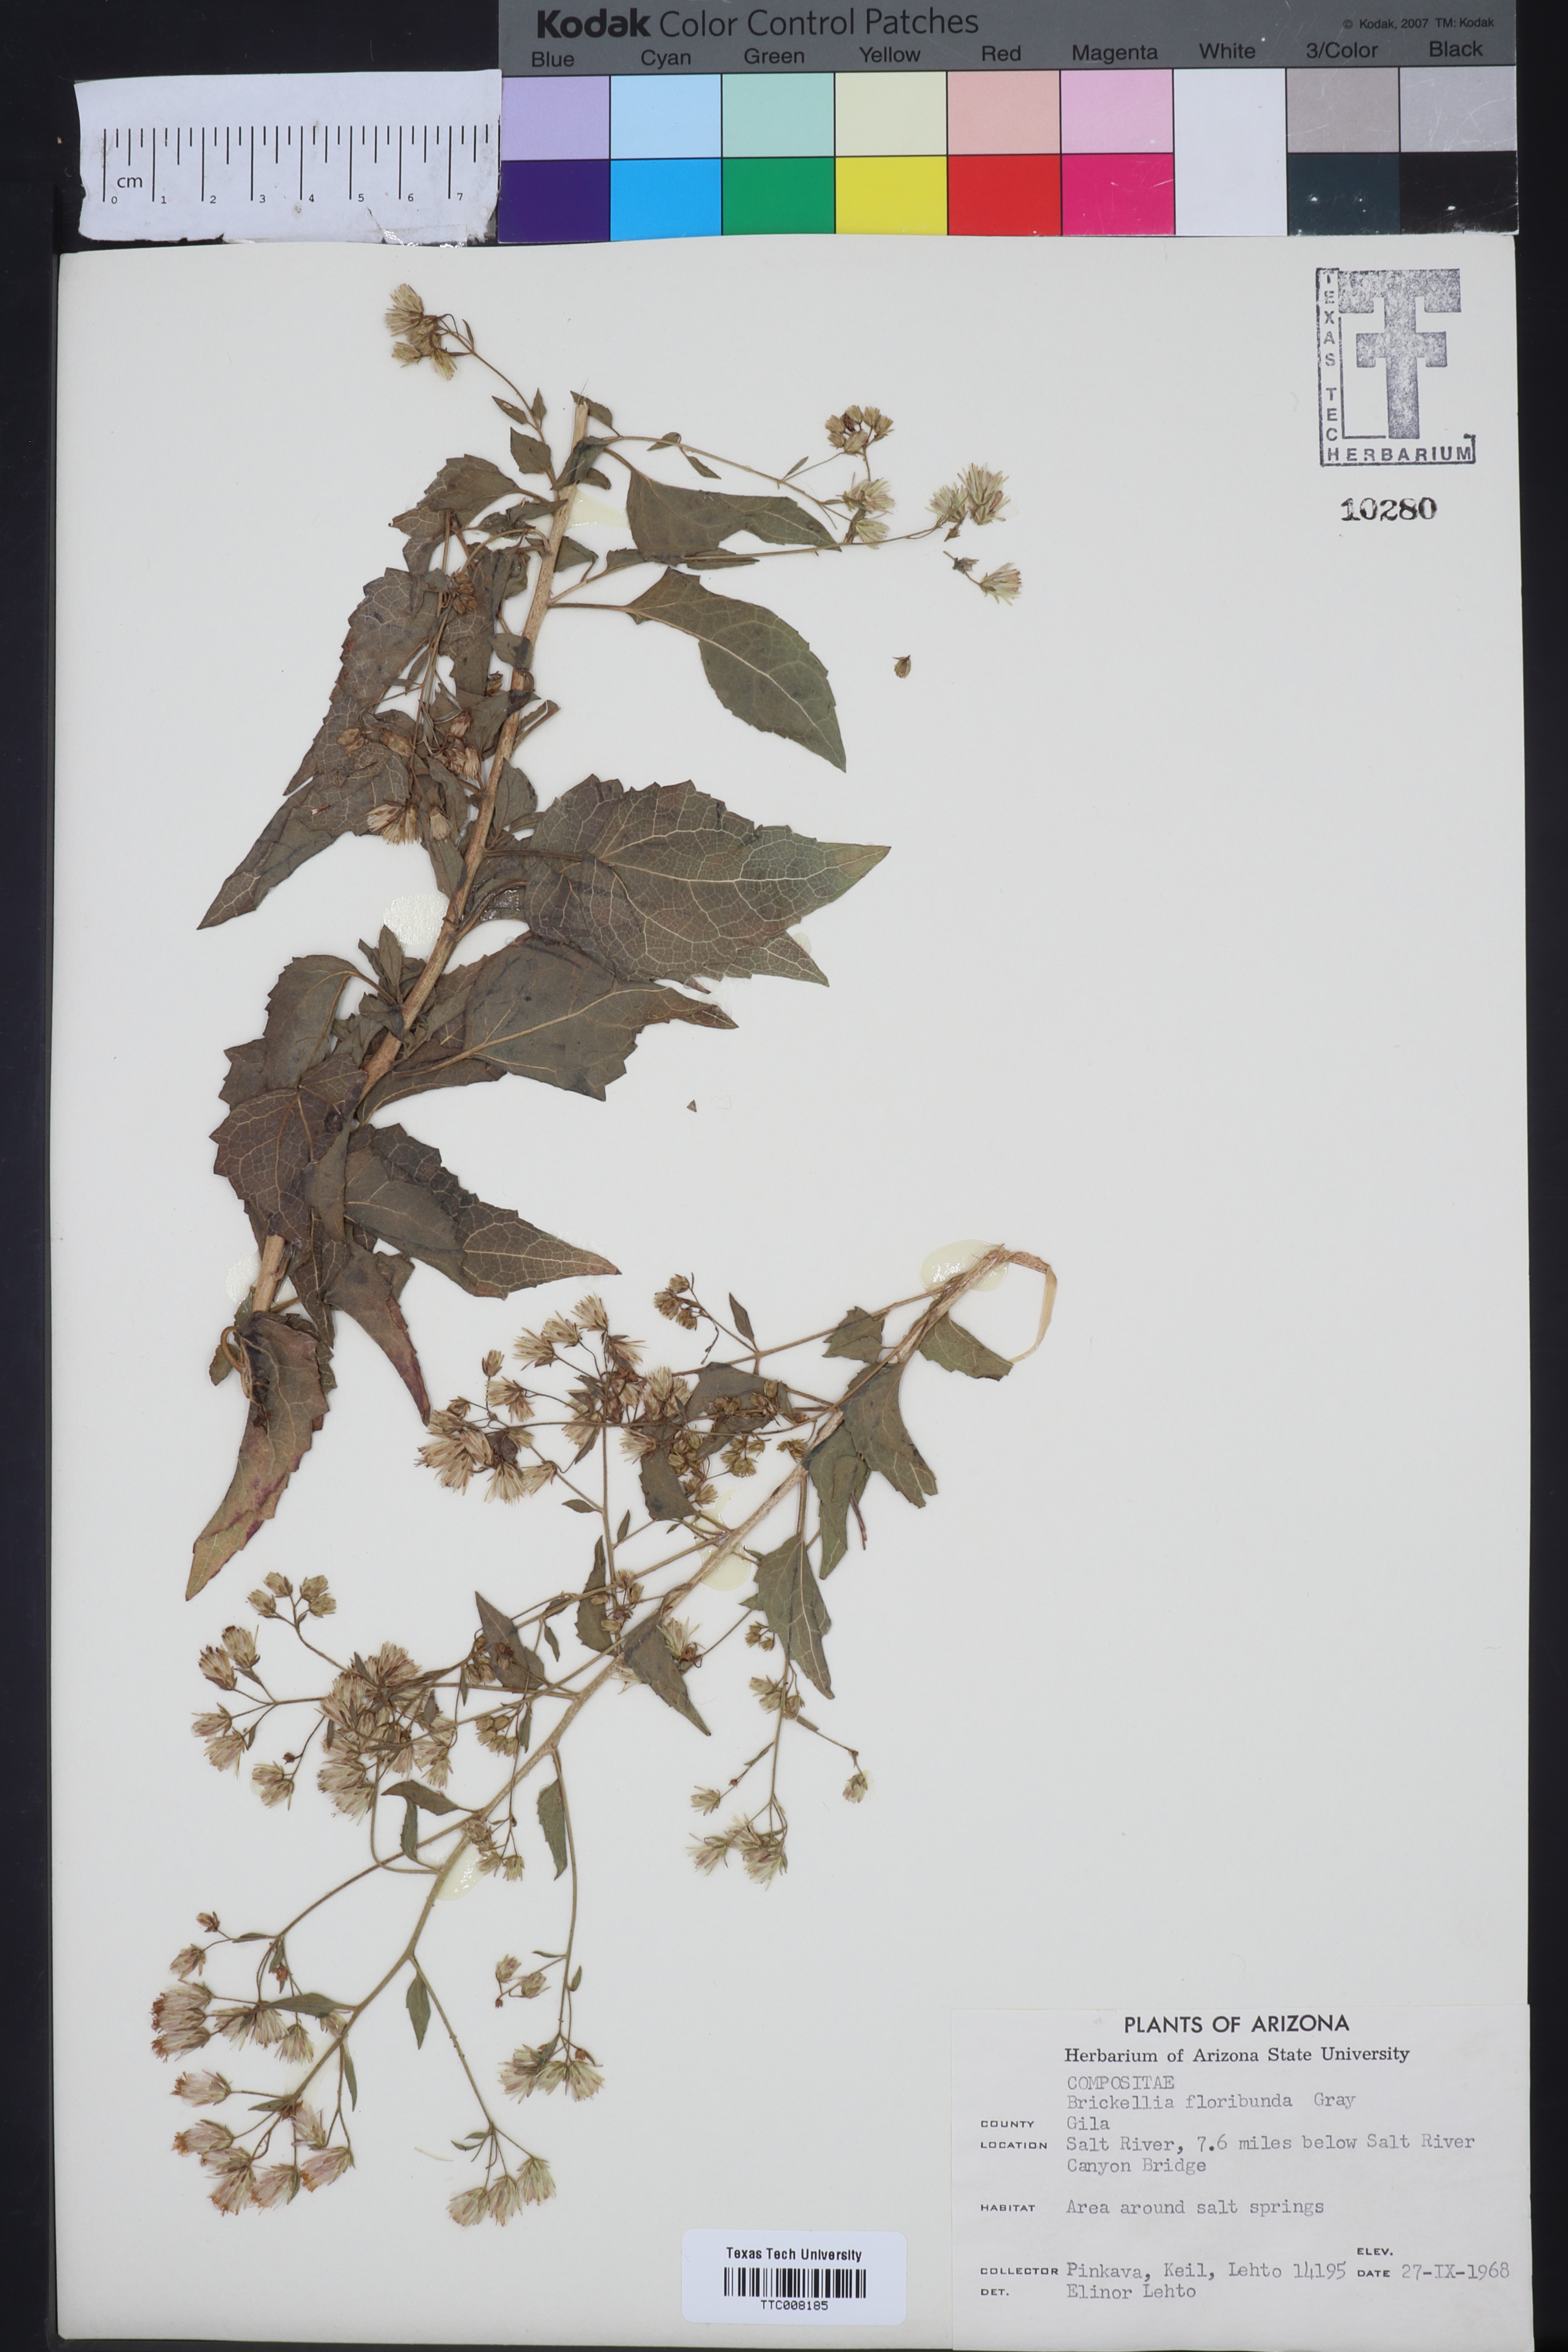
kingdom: Plantae
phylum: Tracheophyta
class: Magnoliopsida
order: Asterales
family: Asteraceae
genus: Brickellia
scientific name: Brickellia floribunda
